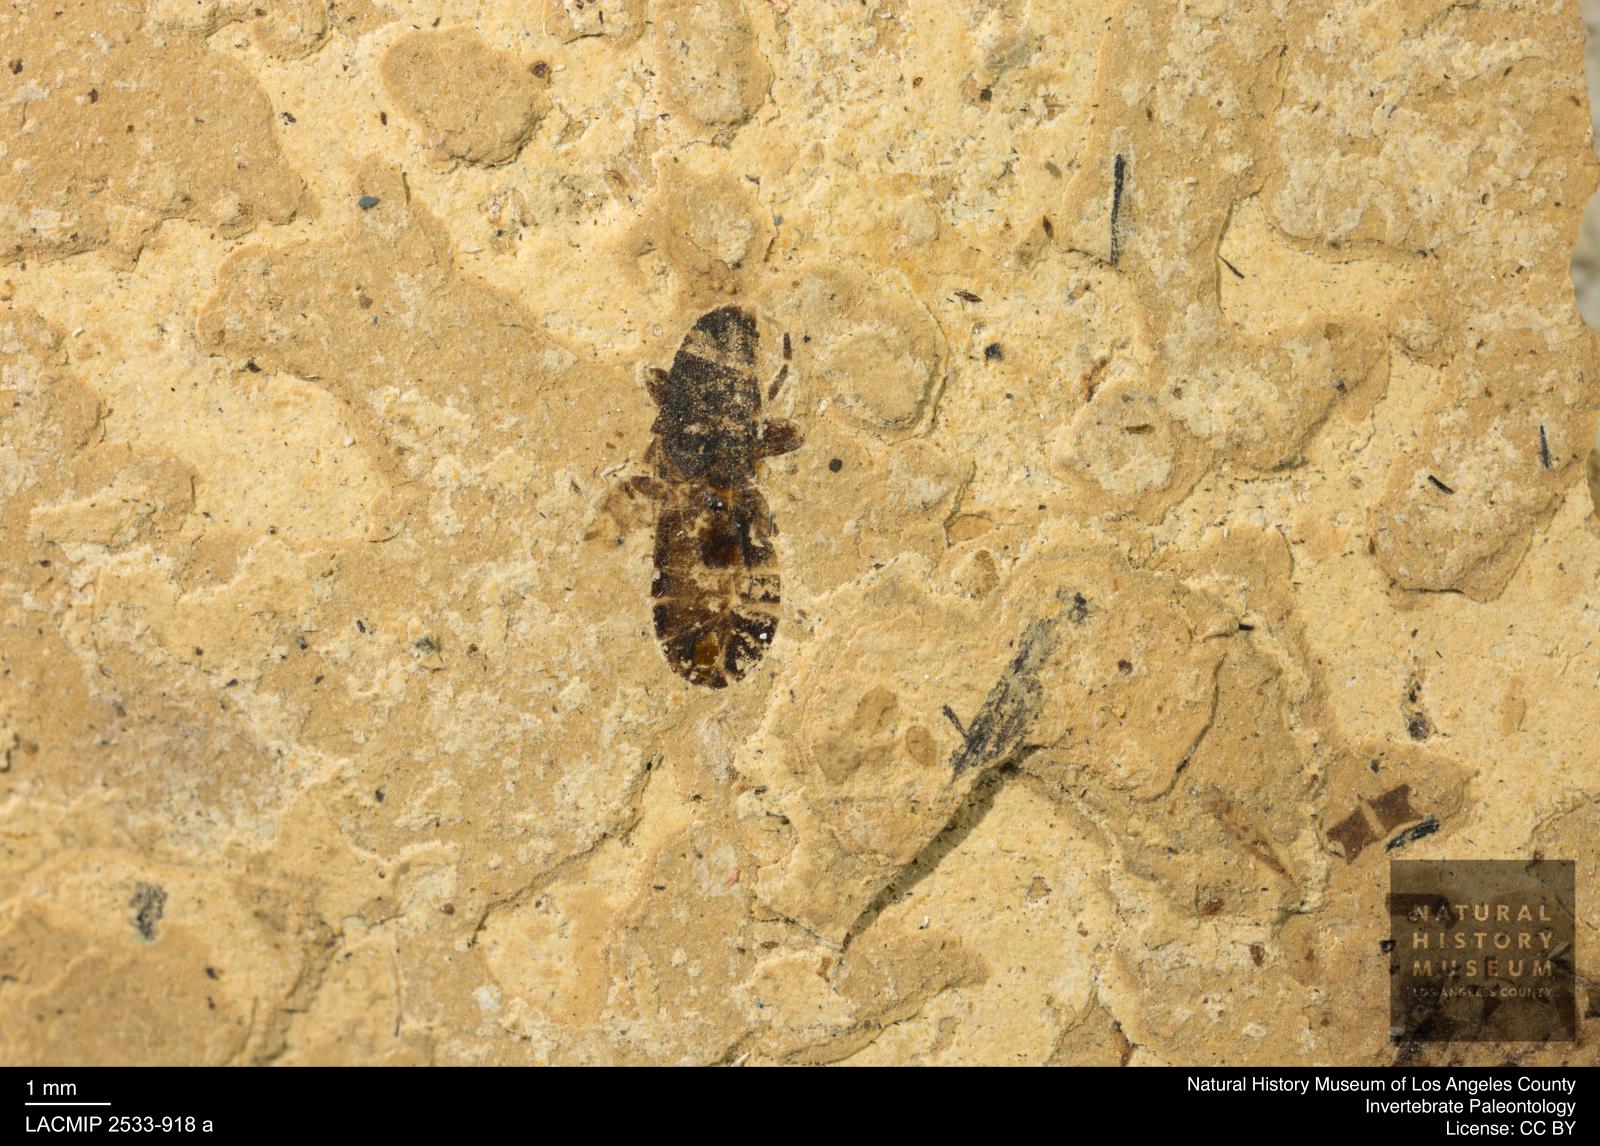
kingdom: Animalia
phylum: Arthropoda
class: Insecta
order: Hemiptera
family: Lygaeidae
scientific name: Lygaeidae
